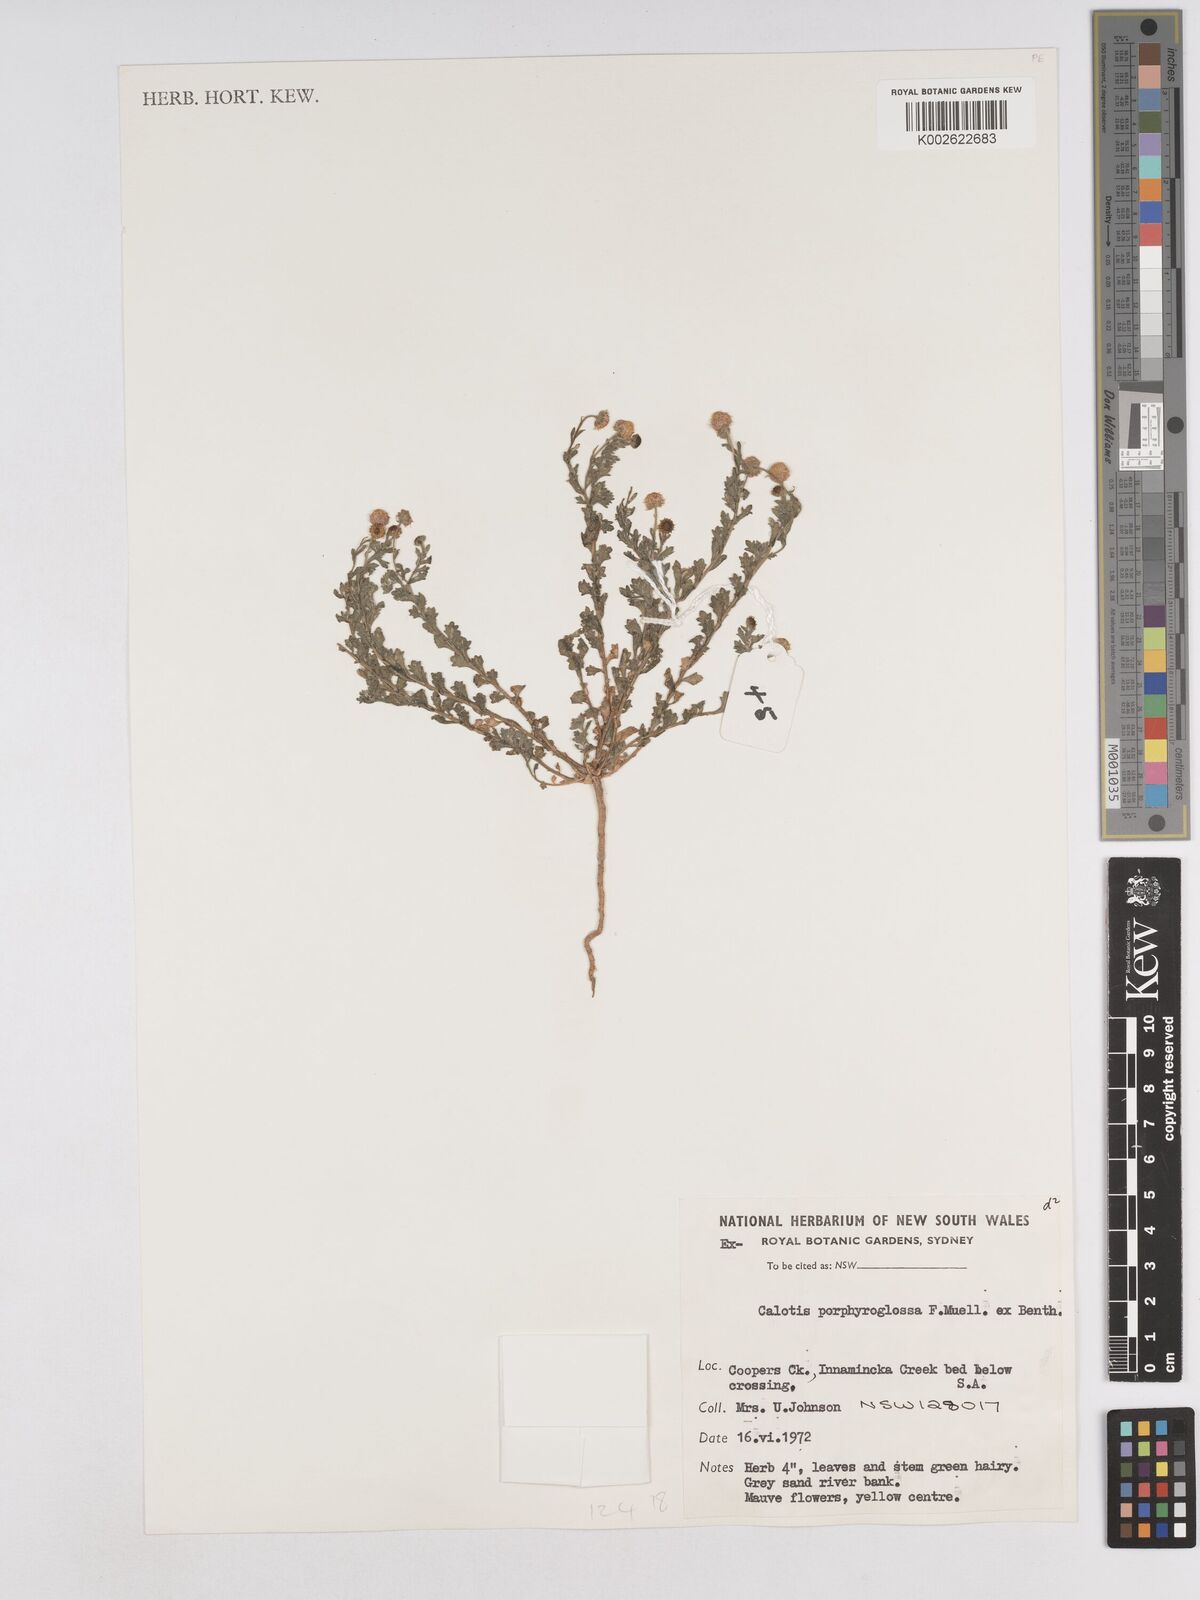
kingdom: Plantae
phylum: Tracheophyta
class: Magnoliopsida
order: Asterales
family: Asteraceae
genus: Calotis
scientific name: Calotis porphyroglossa
